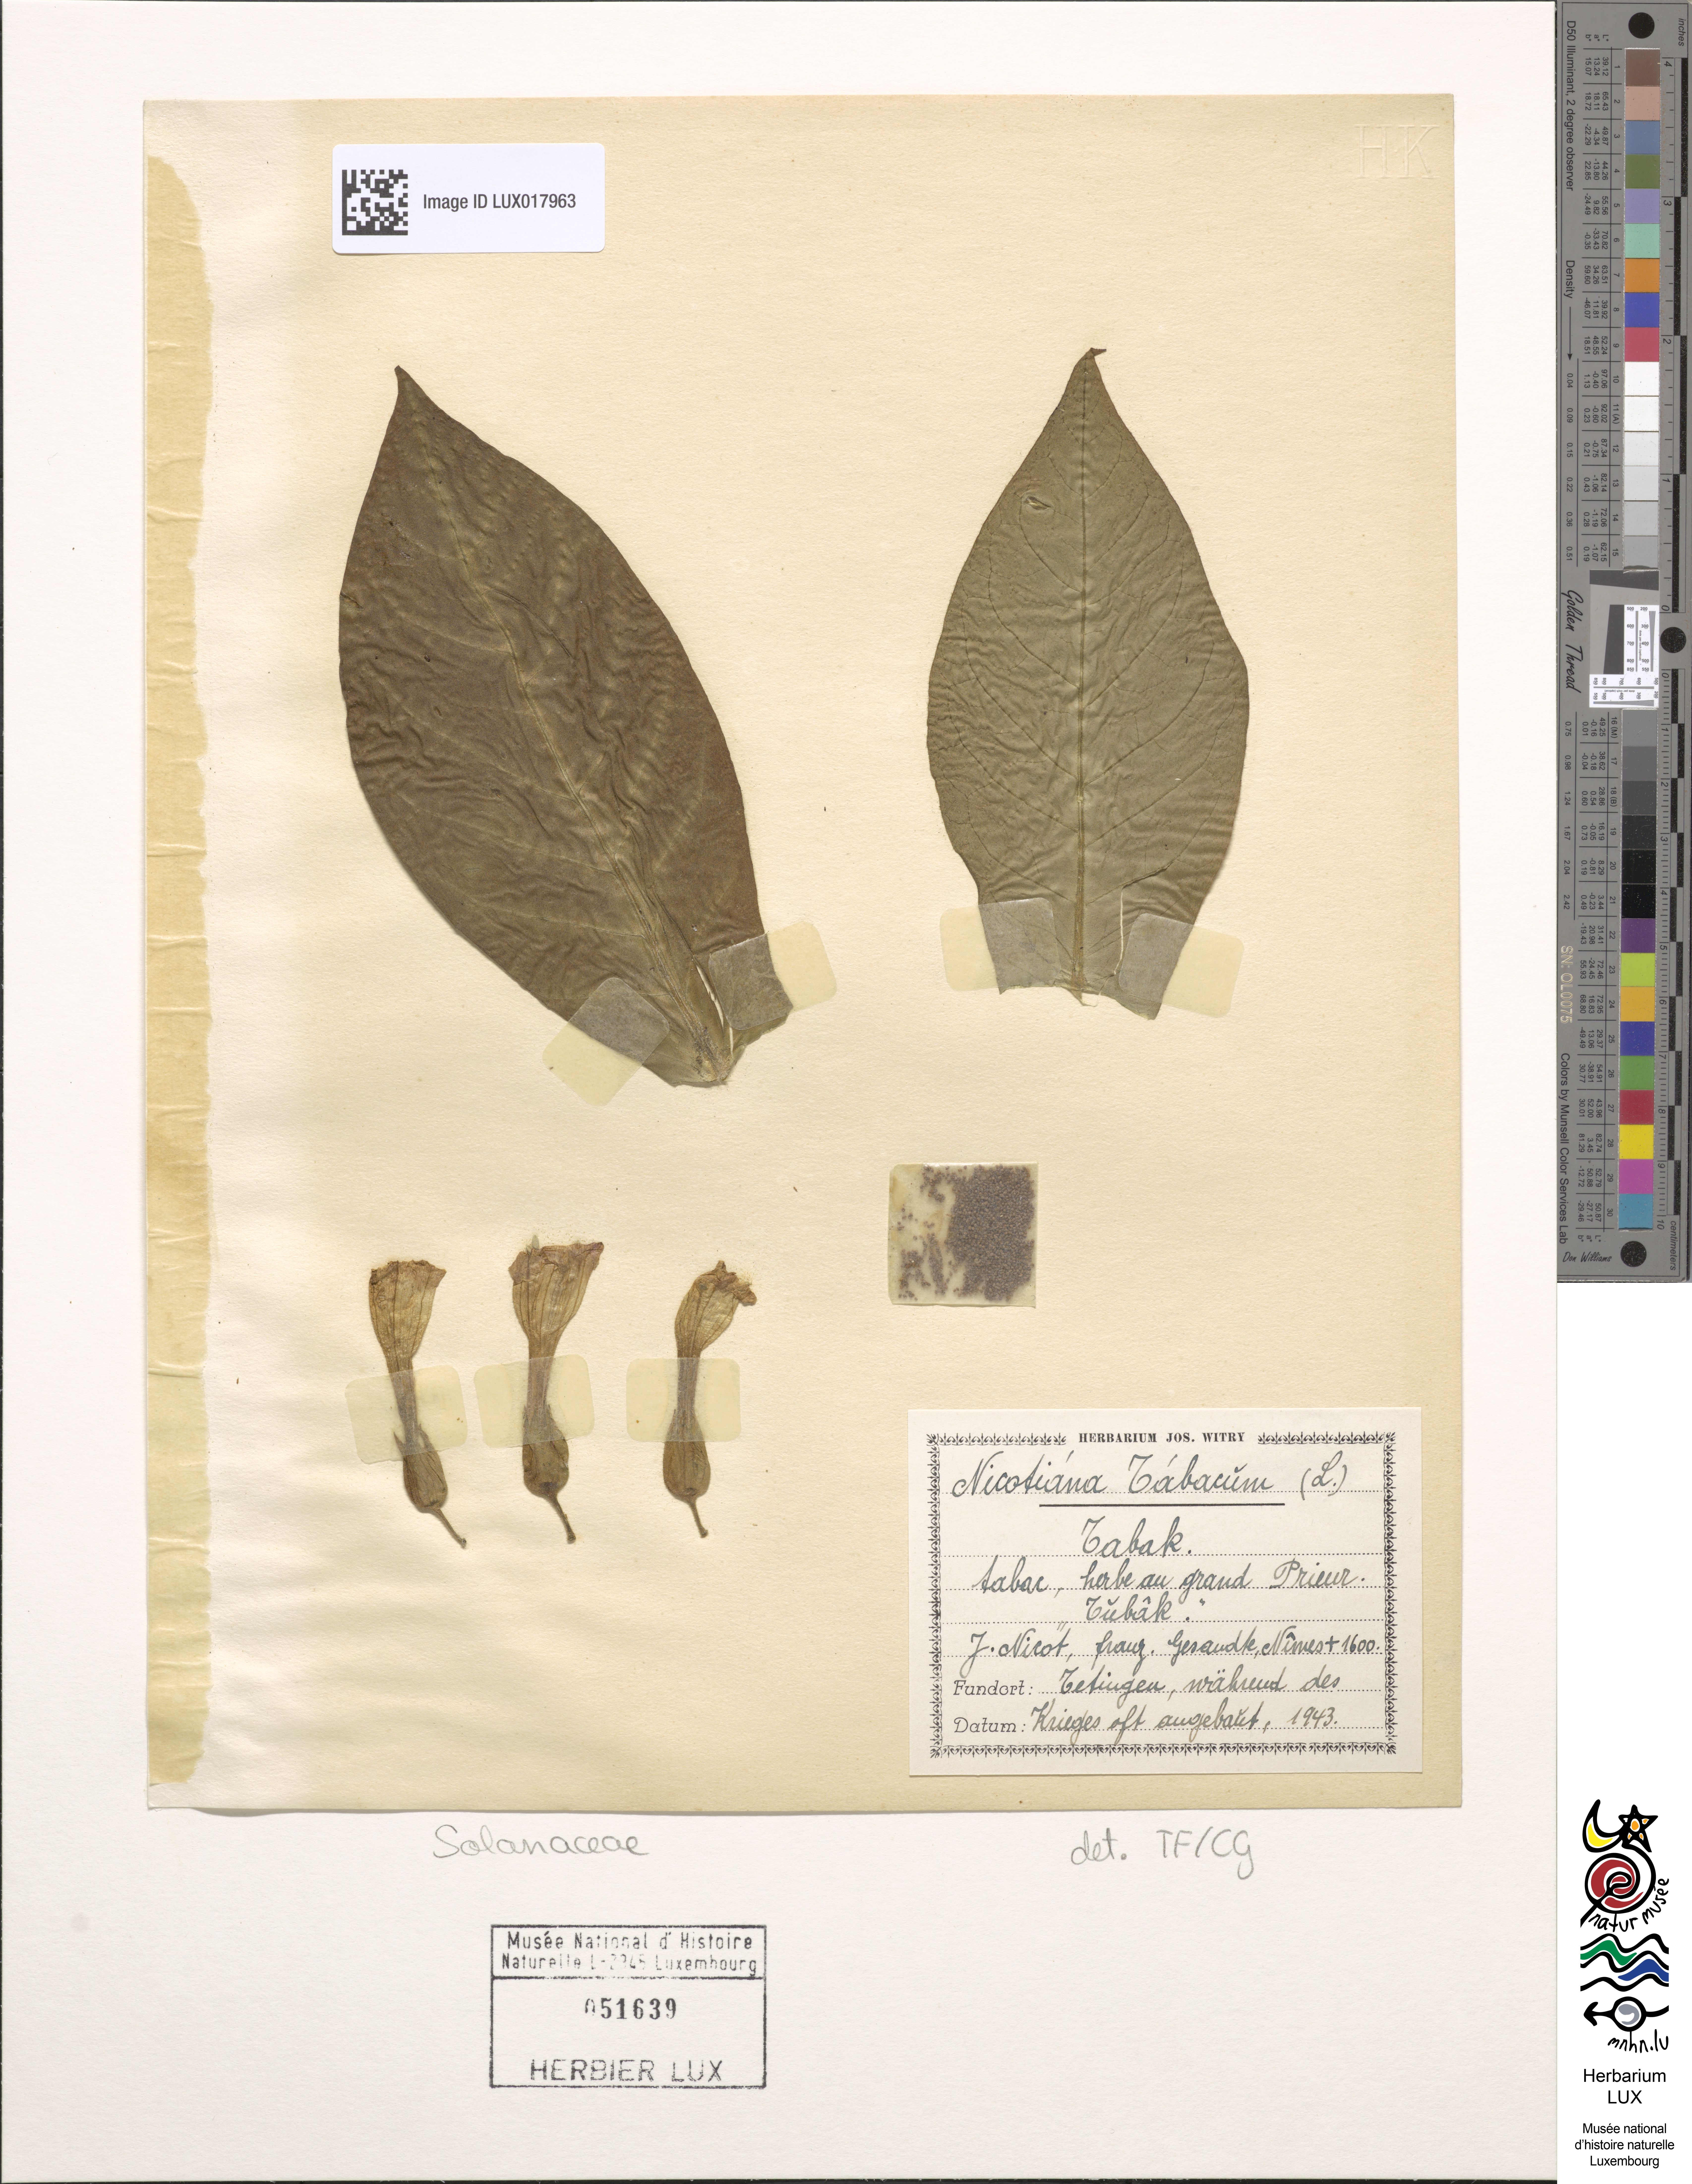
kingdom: Plantae
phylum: Tracheophyta
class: Magnoliopsida
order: Solanales
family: Solanaceae
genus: Nicotiana
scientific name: Nicotiana tabacum
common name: Tobacco
